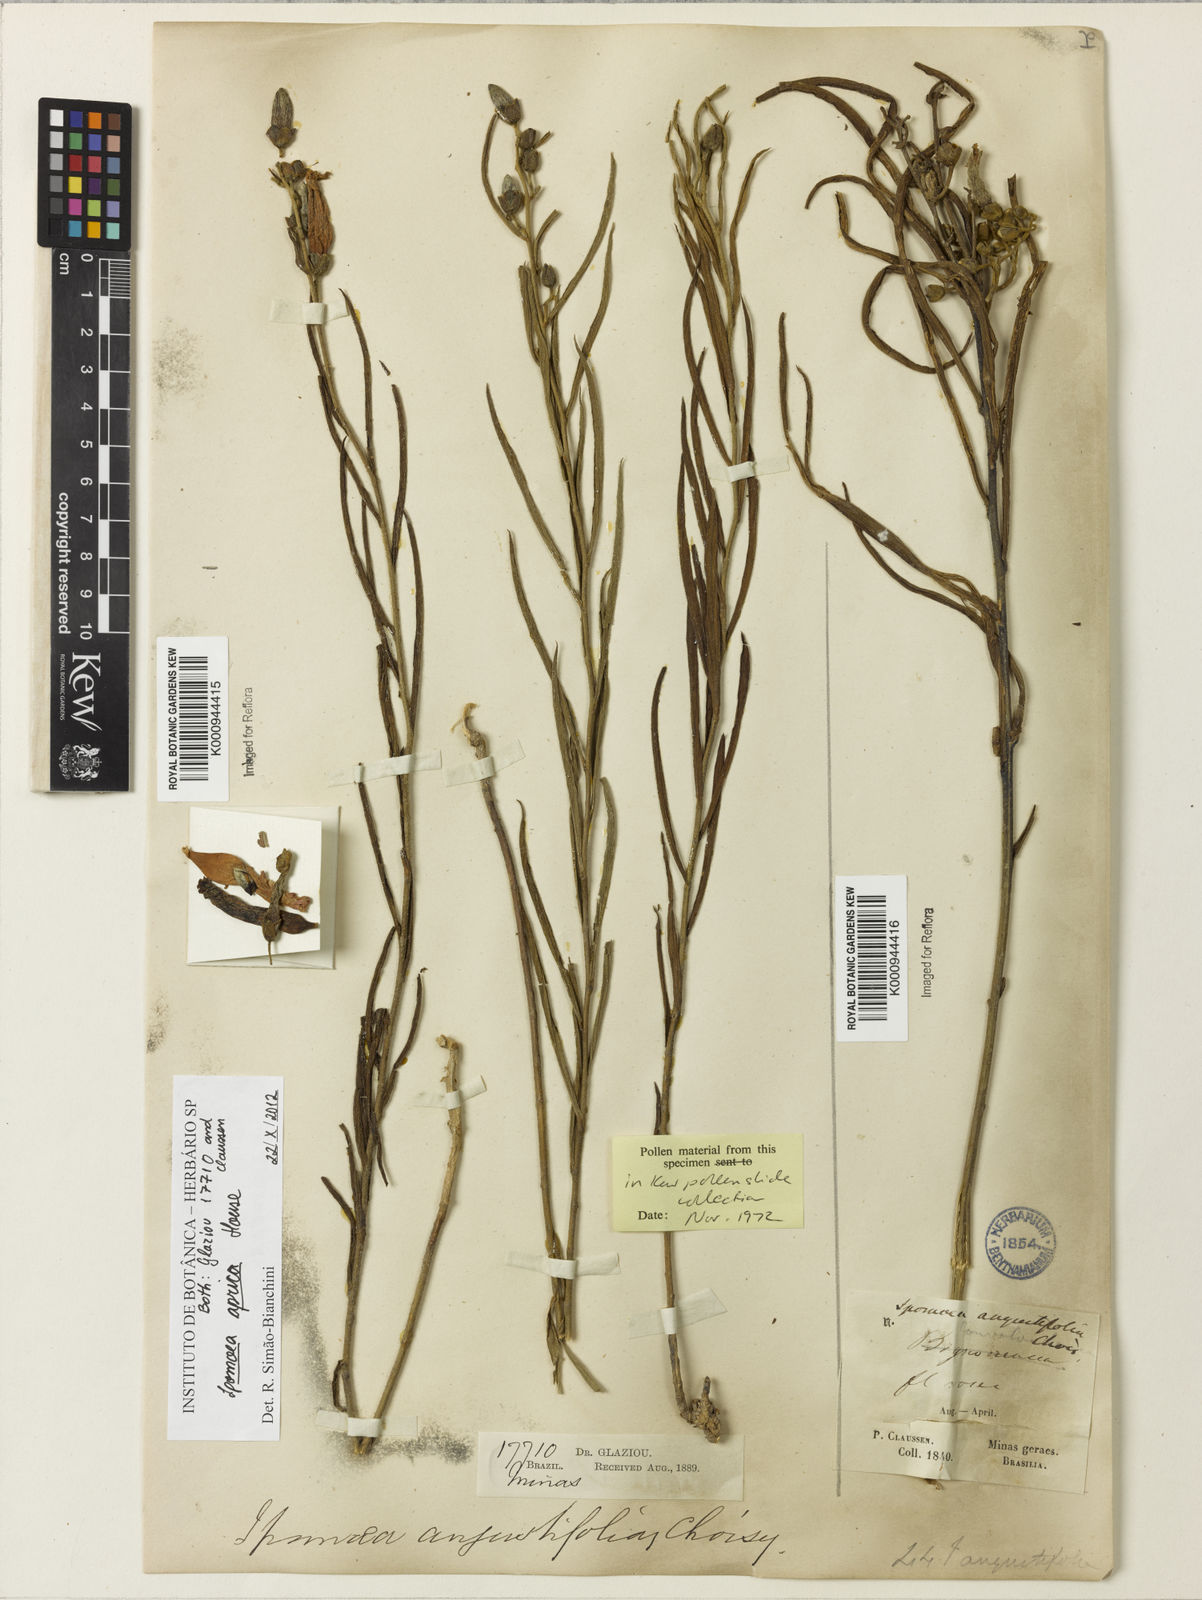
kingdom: Plantae
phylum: Tracheophyta
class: Magnoliopsida
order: Solanales
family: Convolvulaceae
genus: Ipomoea
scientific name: Ipomoea aprica
